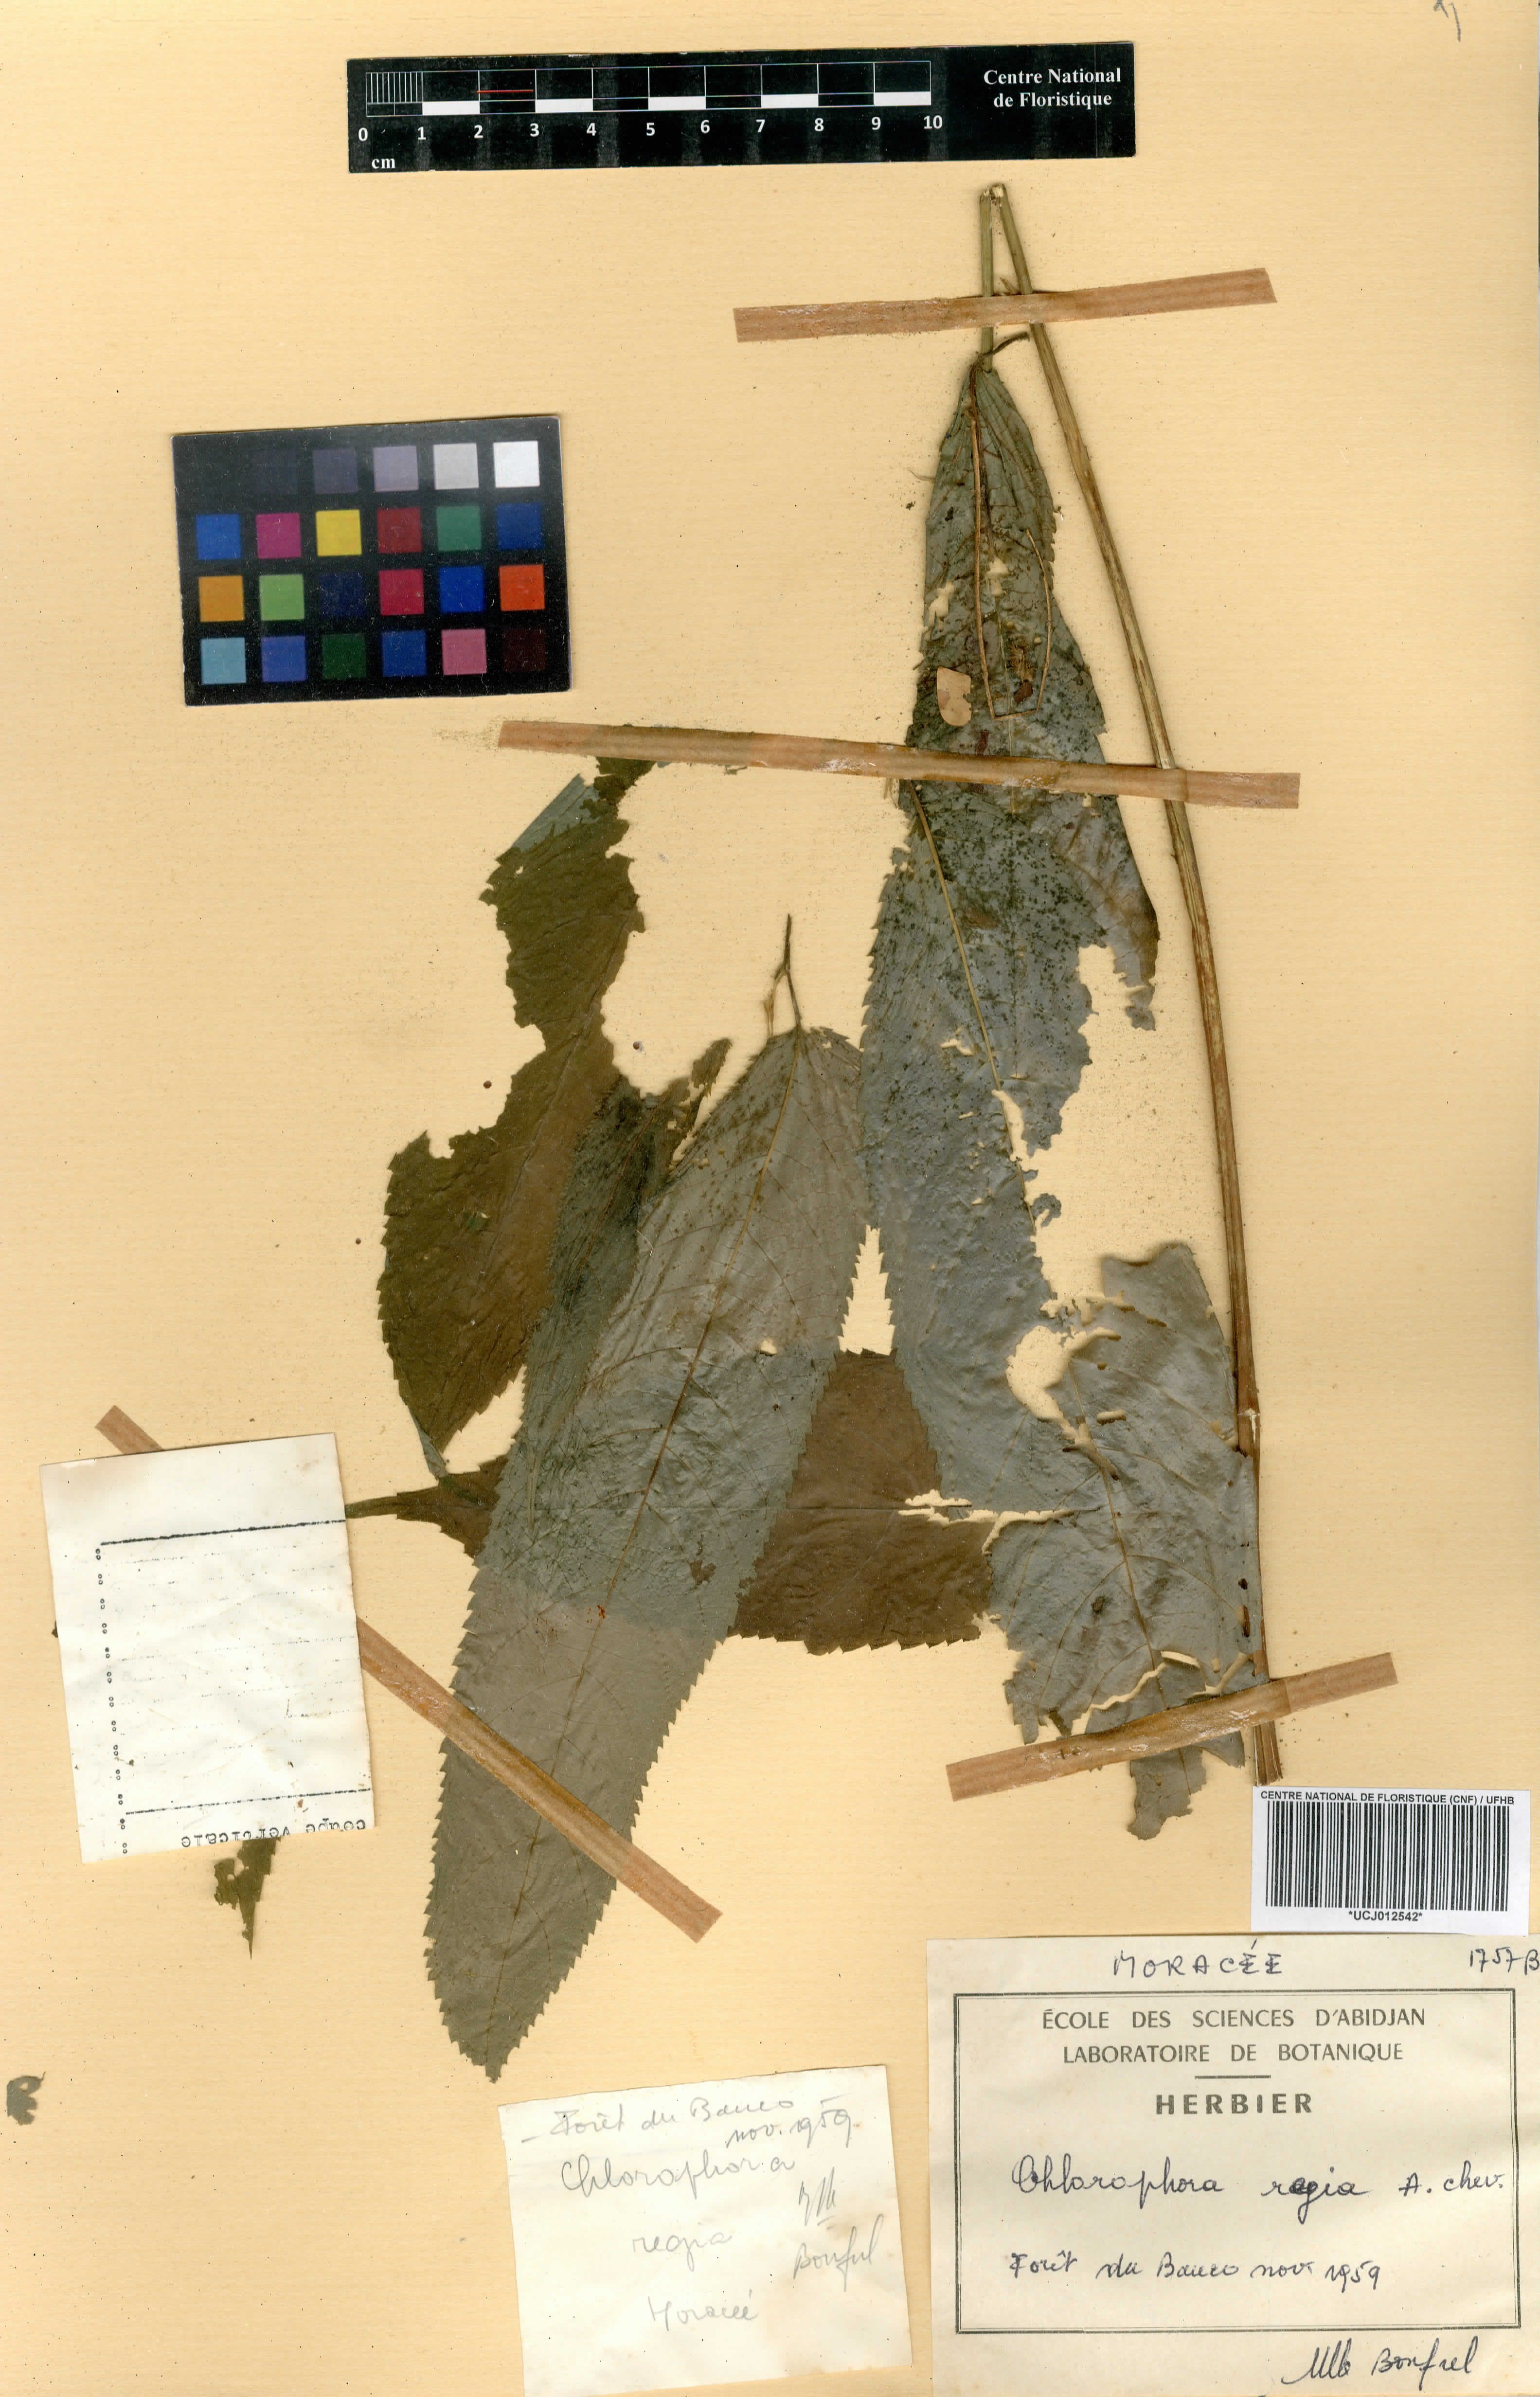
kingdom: Plantae
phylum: Tracheophyta
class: Magnoliopsida
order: Rosales
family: Moraceae
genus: Milicia
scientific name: Milicia regia
